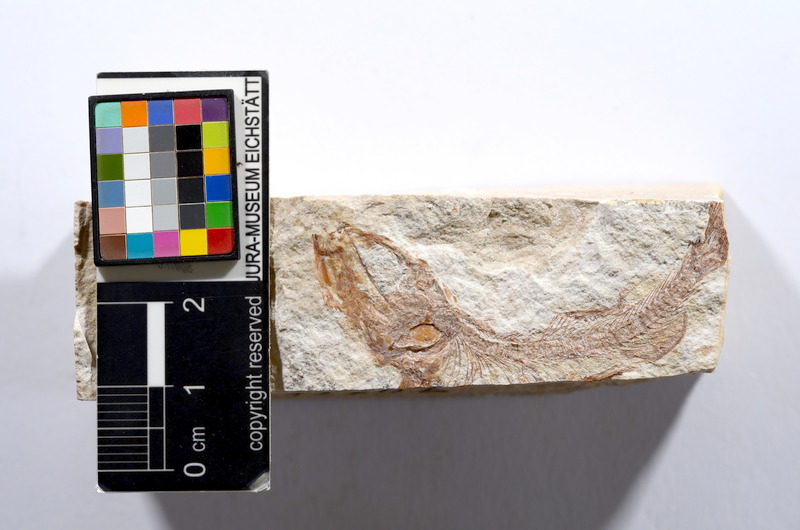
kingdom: Animalia
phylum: Chordata
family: Ascalaboidae
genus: Tharsis
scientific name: Tharsis dubius
